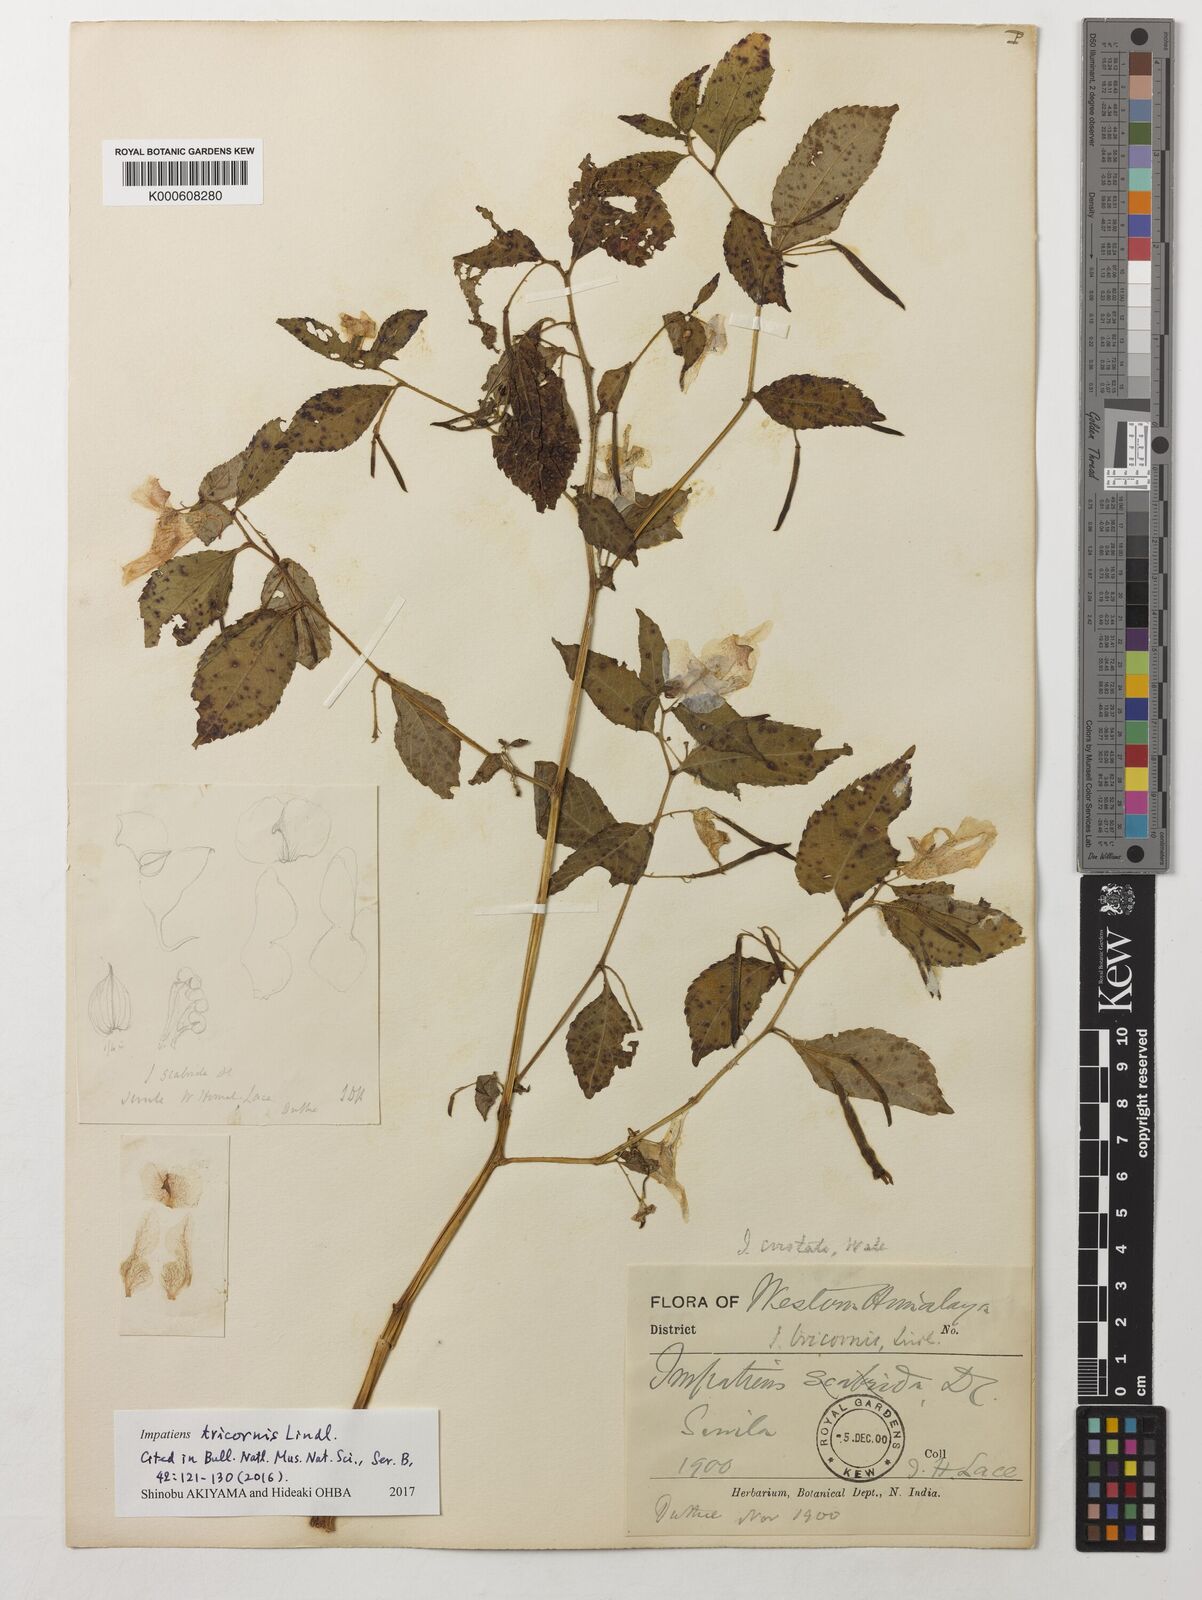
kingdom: Plantae
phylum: Tracheophyta
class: Magnoliopsida
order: Ericales
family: Balsaminaceae
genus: Impatiens
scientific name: Impatiens tricornis
